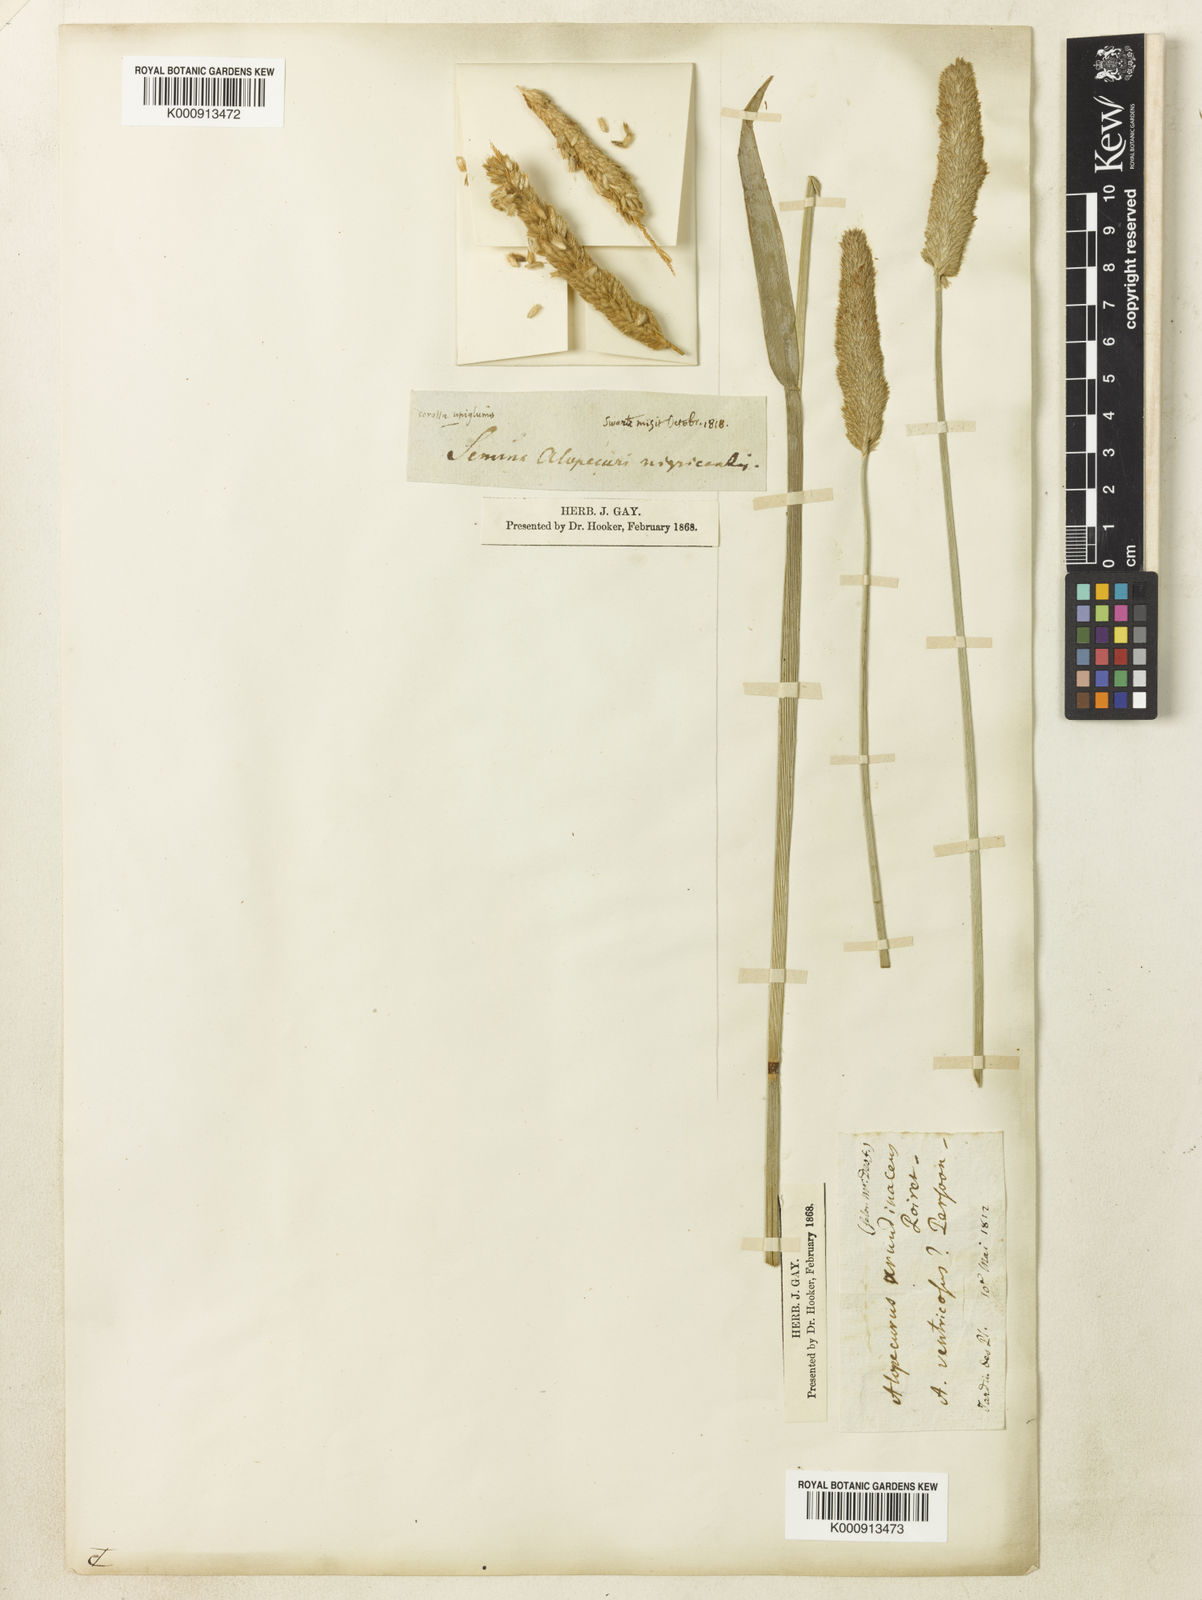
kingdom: Plantae
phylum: Tracheophyta
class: Liliopsida
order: Poales
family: Poaceae
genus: Alopecurus
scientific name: Alopecurus arundinaceus
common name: Creeping meadow foxtail
